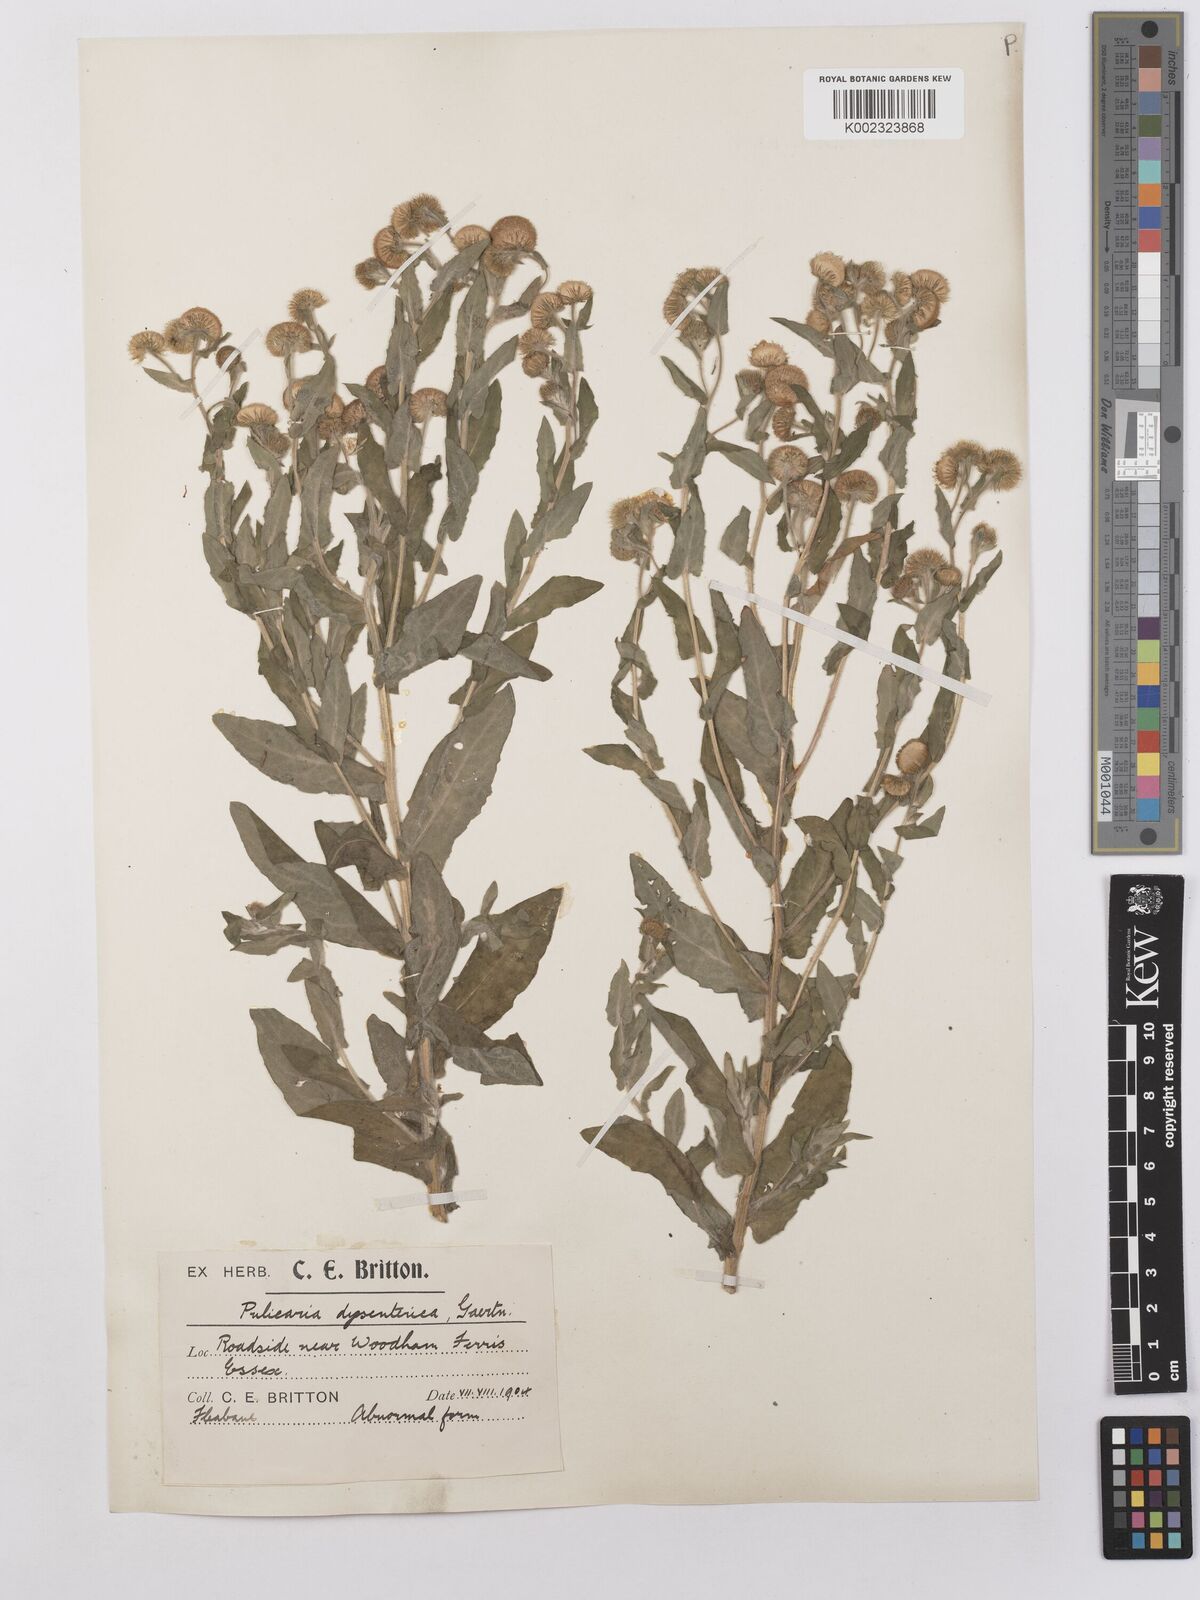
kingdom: Plantae
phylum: Tracheophyta
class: Magnoliopsida
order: Asterales
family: Asteraceae
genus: Pulicaria
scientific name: Pulicaria dysenterica
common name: Common fleabane
